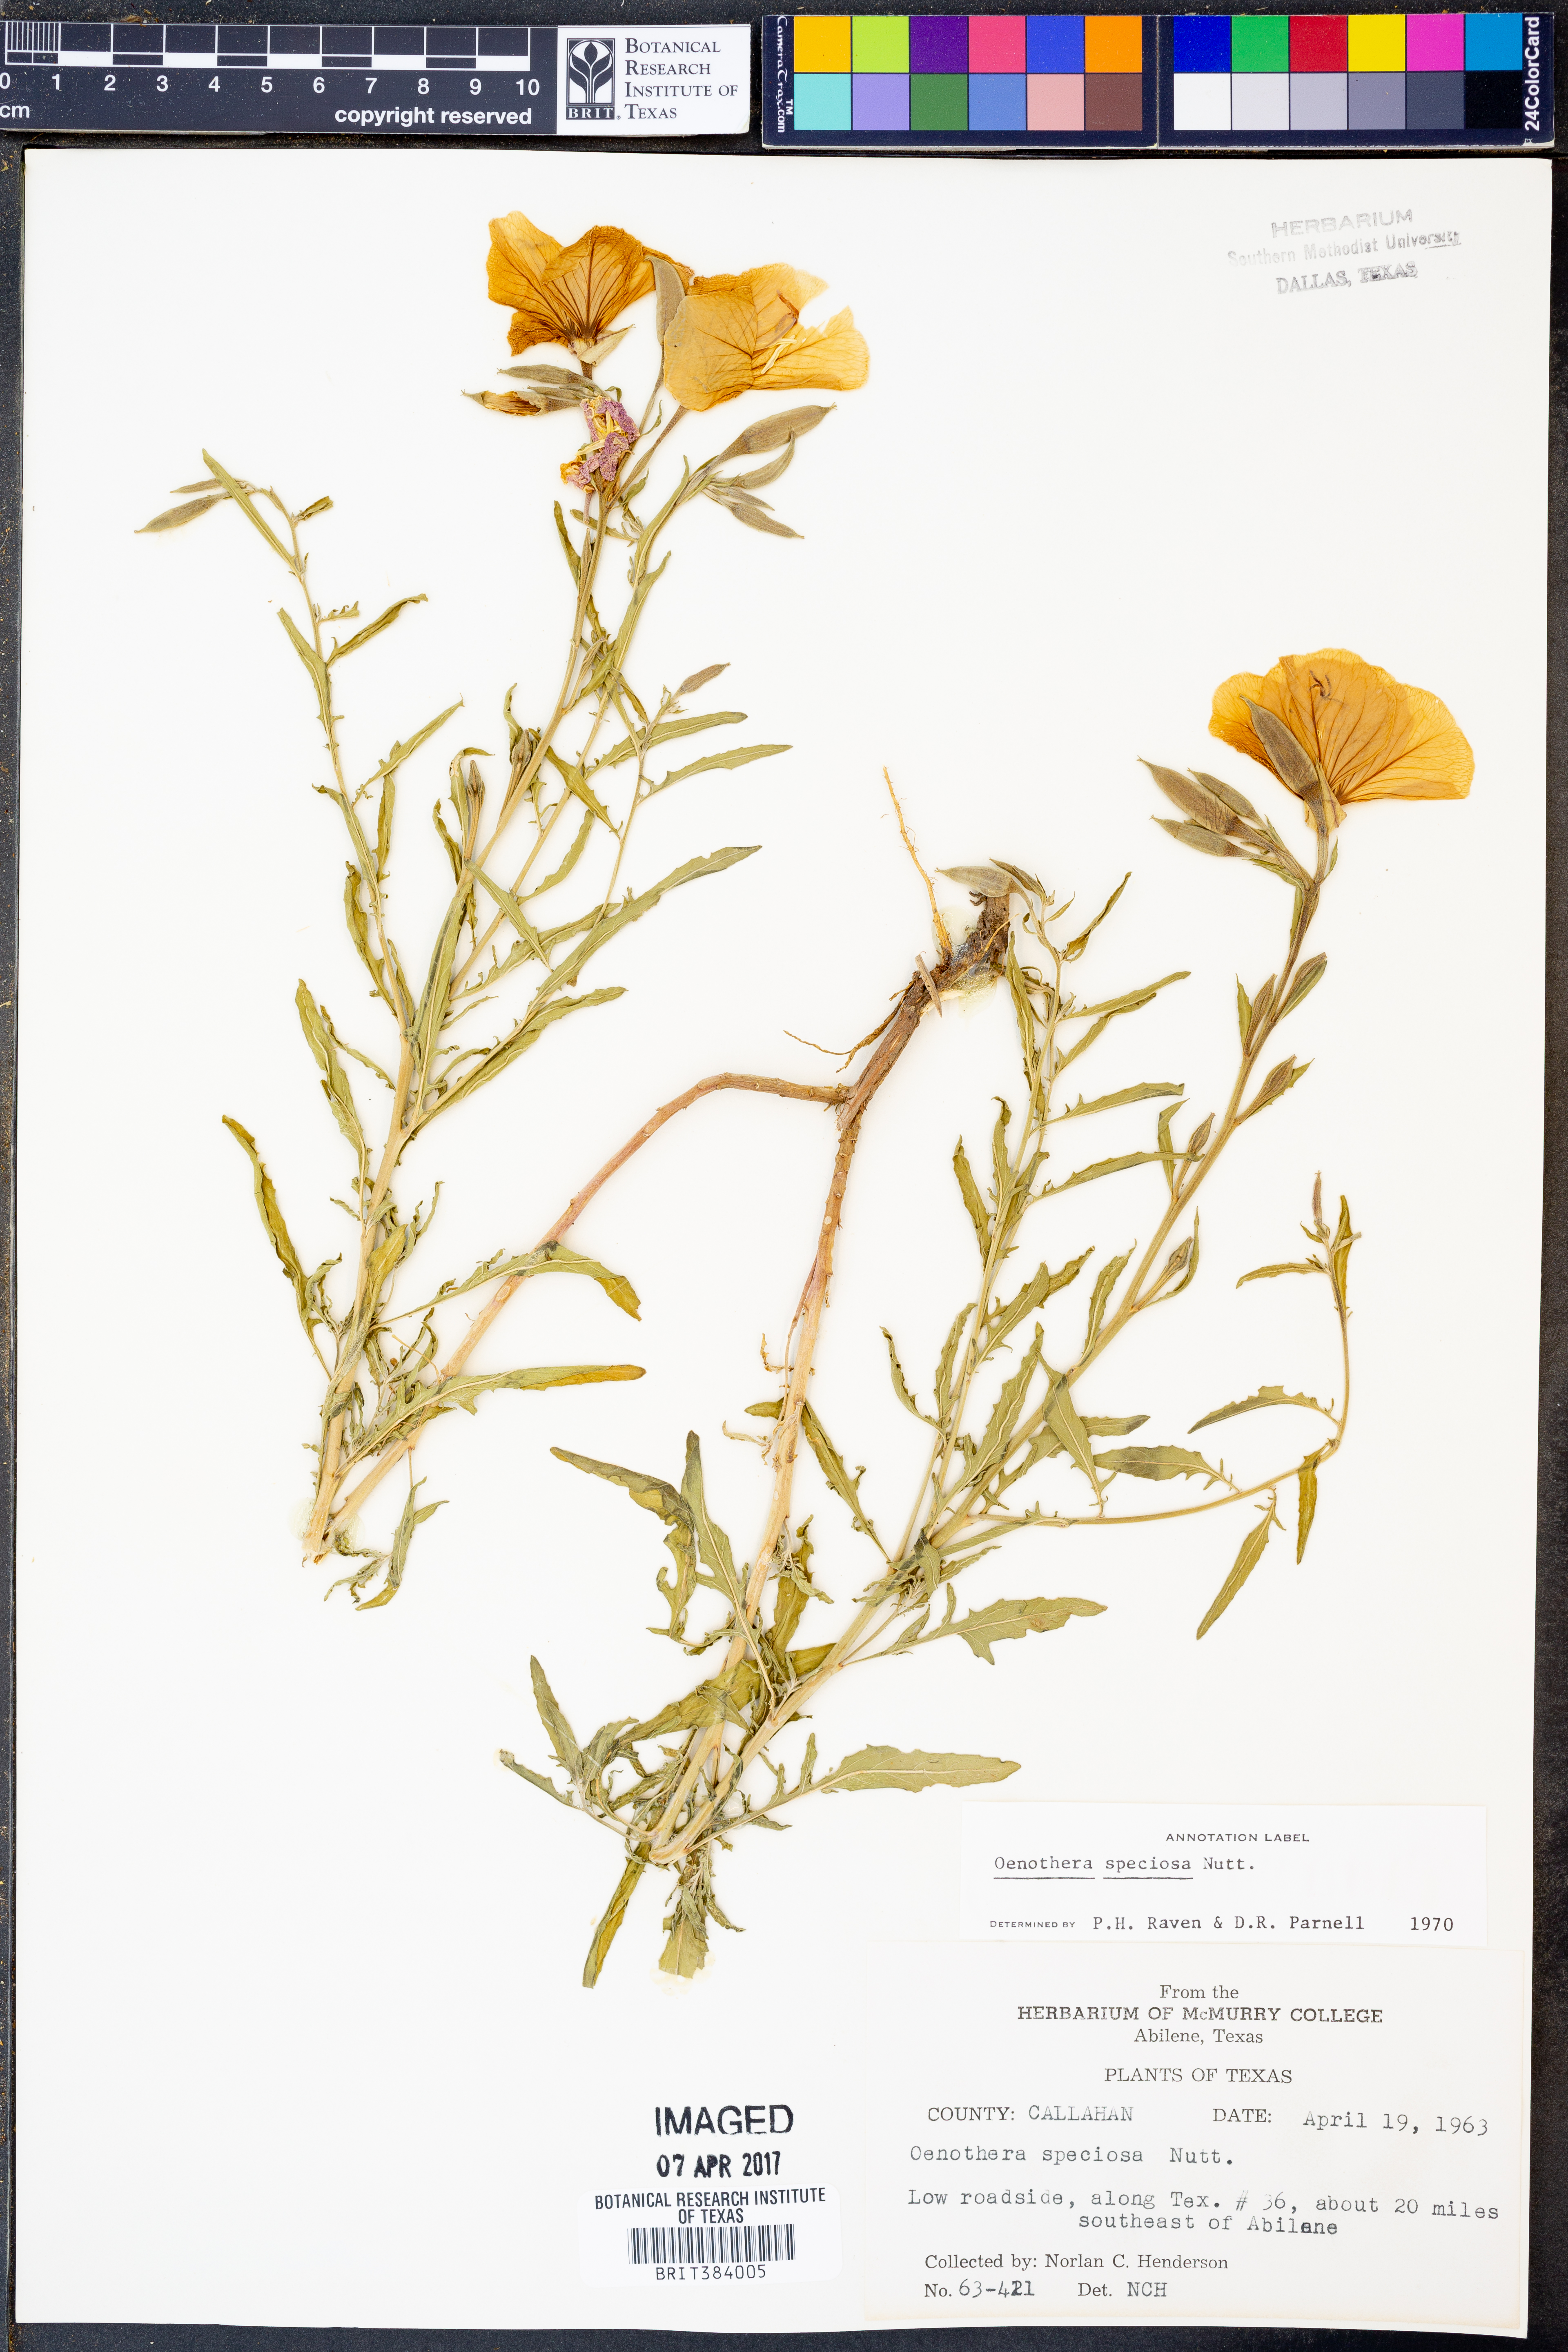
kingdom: Plantae
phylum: Tracheophyta
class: Magnoliopsida
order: Myrtales
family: Onagraceae
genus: Oenothera
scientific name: Oenothera speciosa
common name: White evening-primrose
